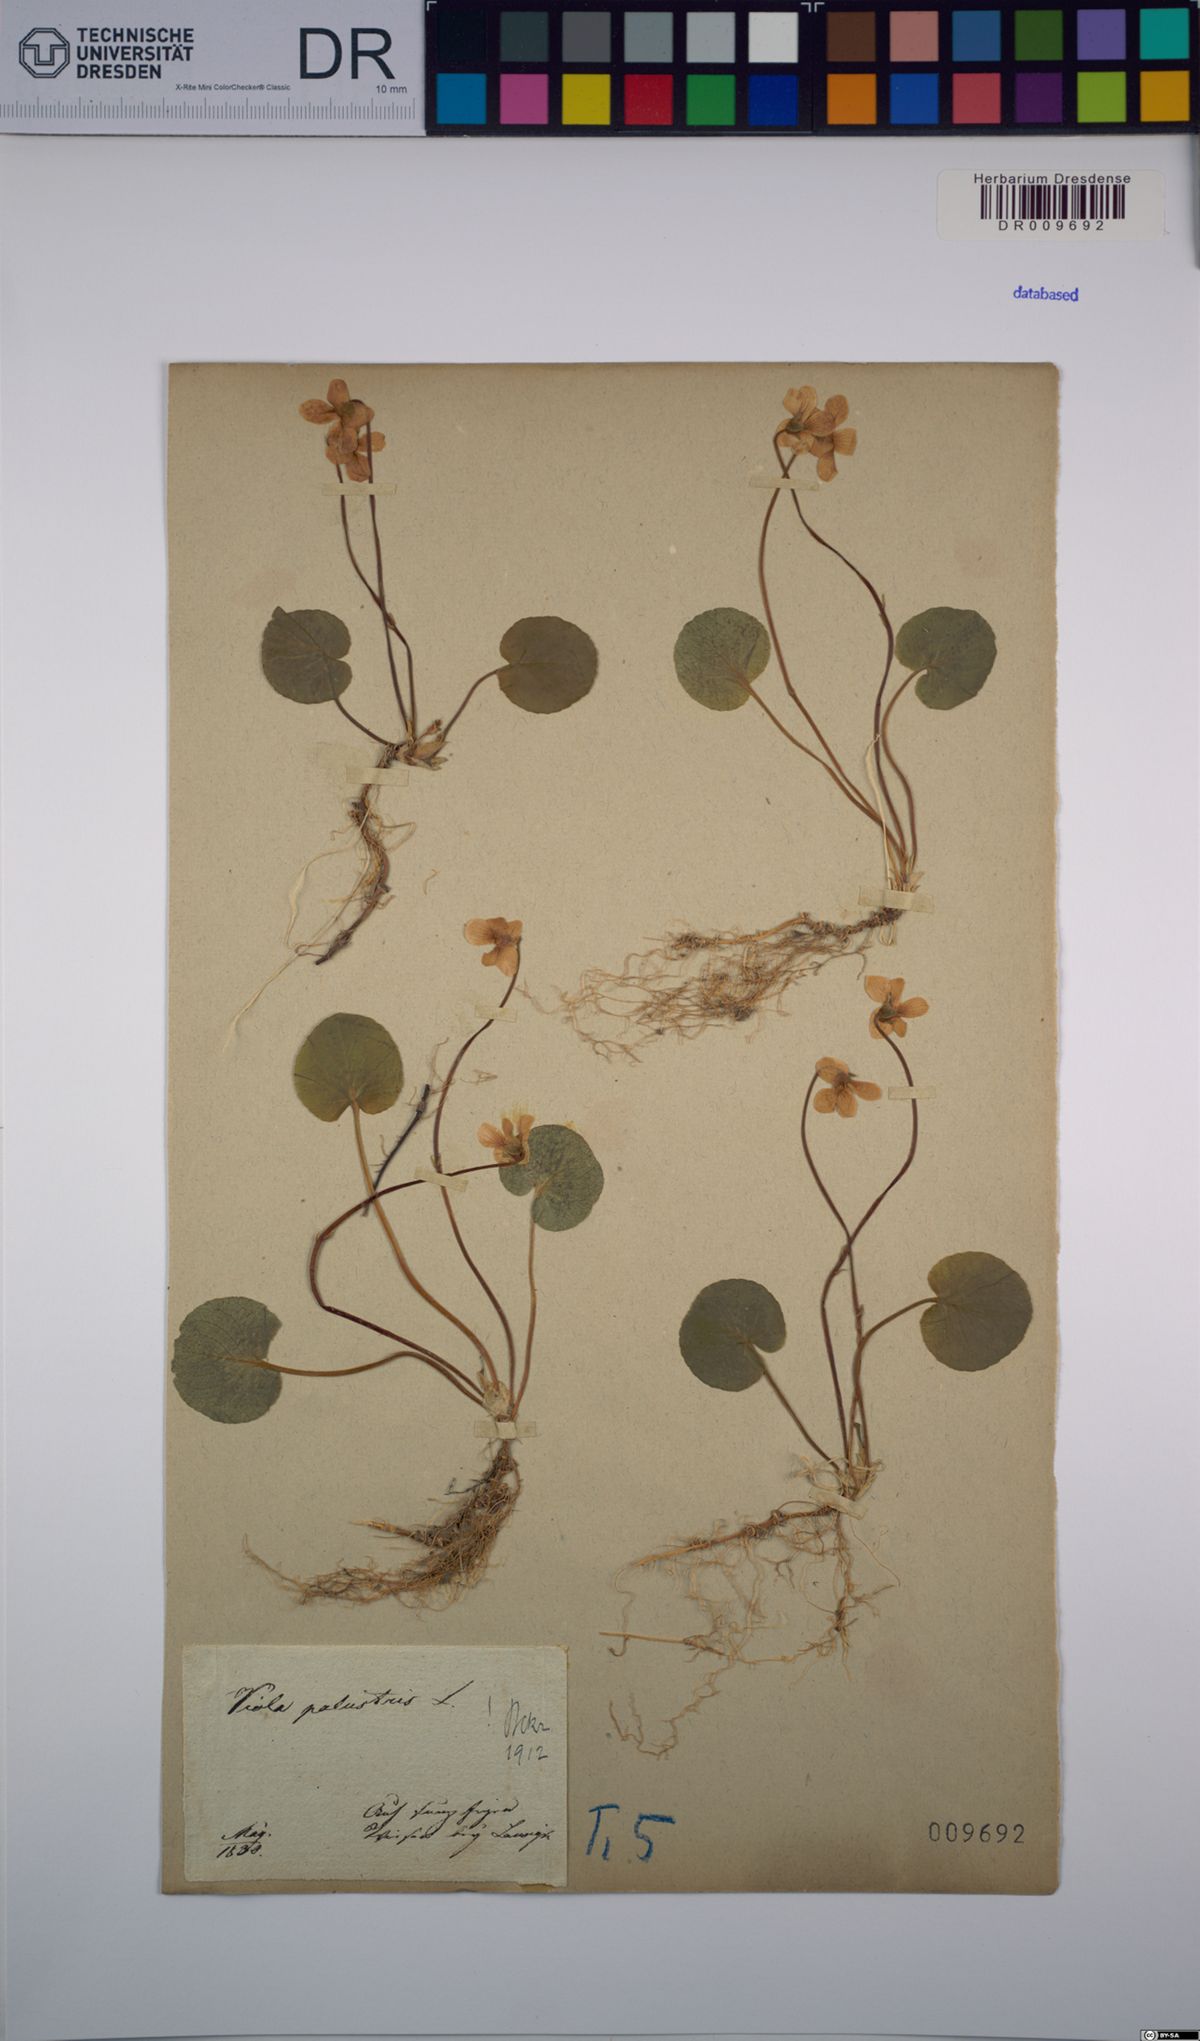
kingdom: Plantae
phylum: Tracheophyta
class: Magnoliopsida
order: Malpighiales
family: Violaceae
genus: Viola
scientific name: Viola palustris
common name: Marsh violet
